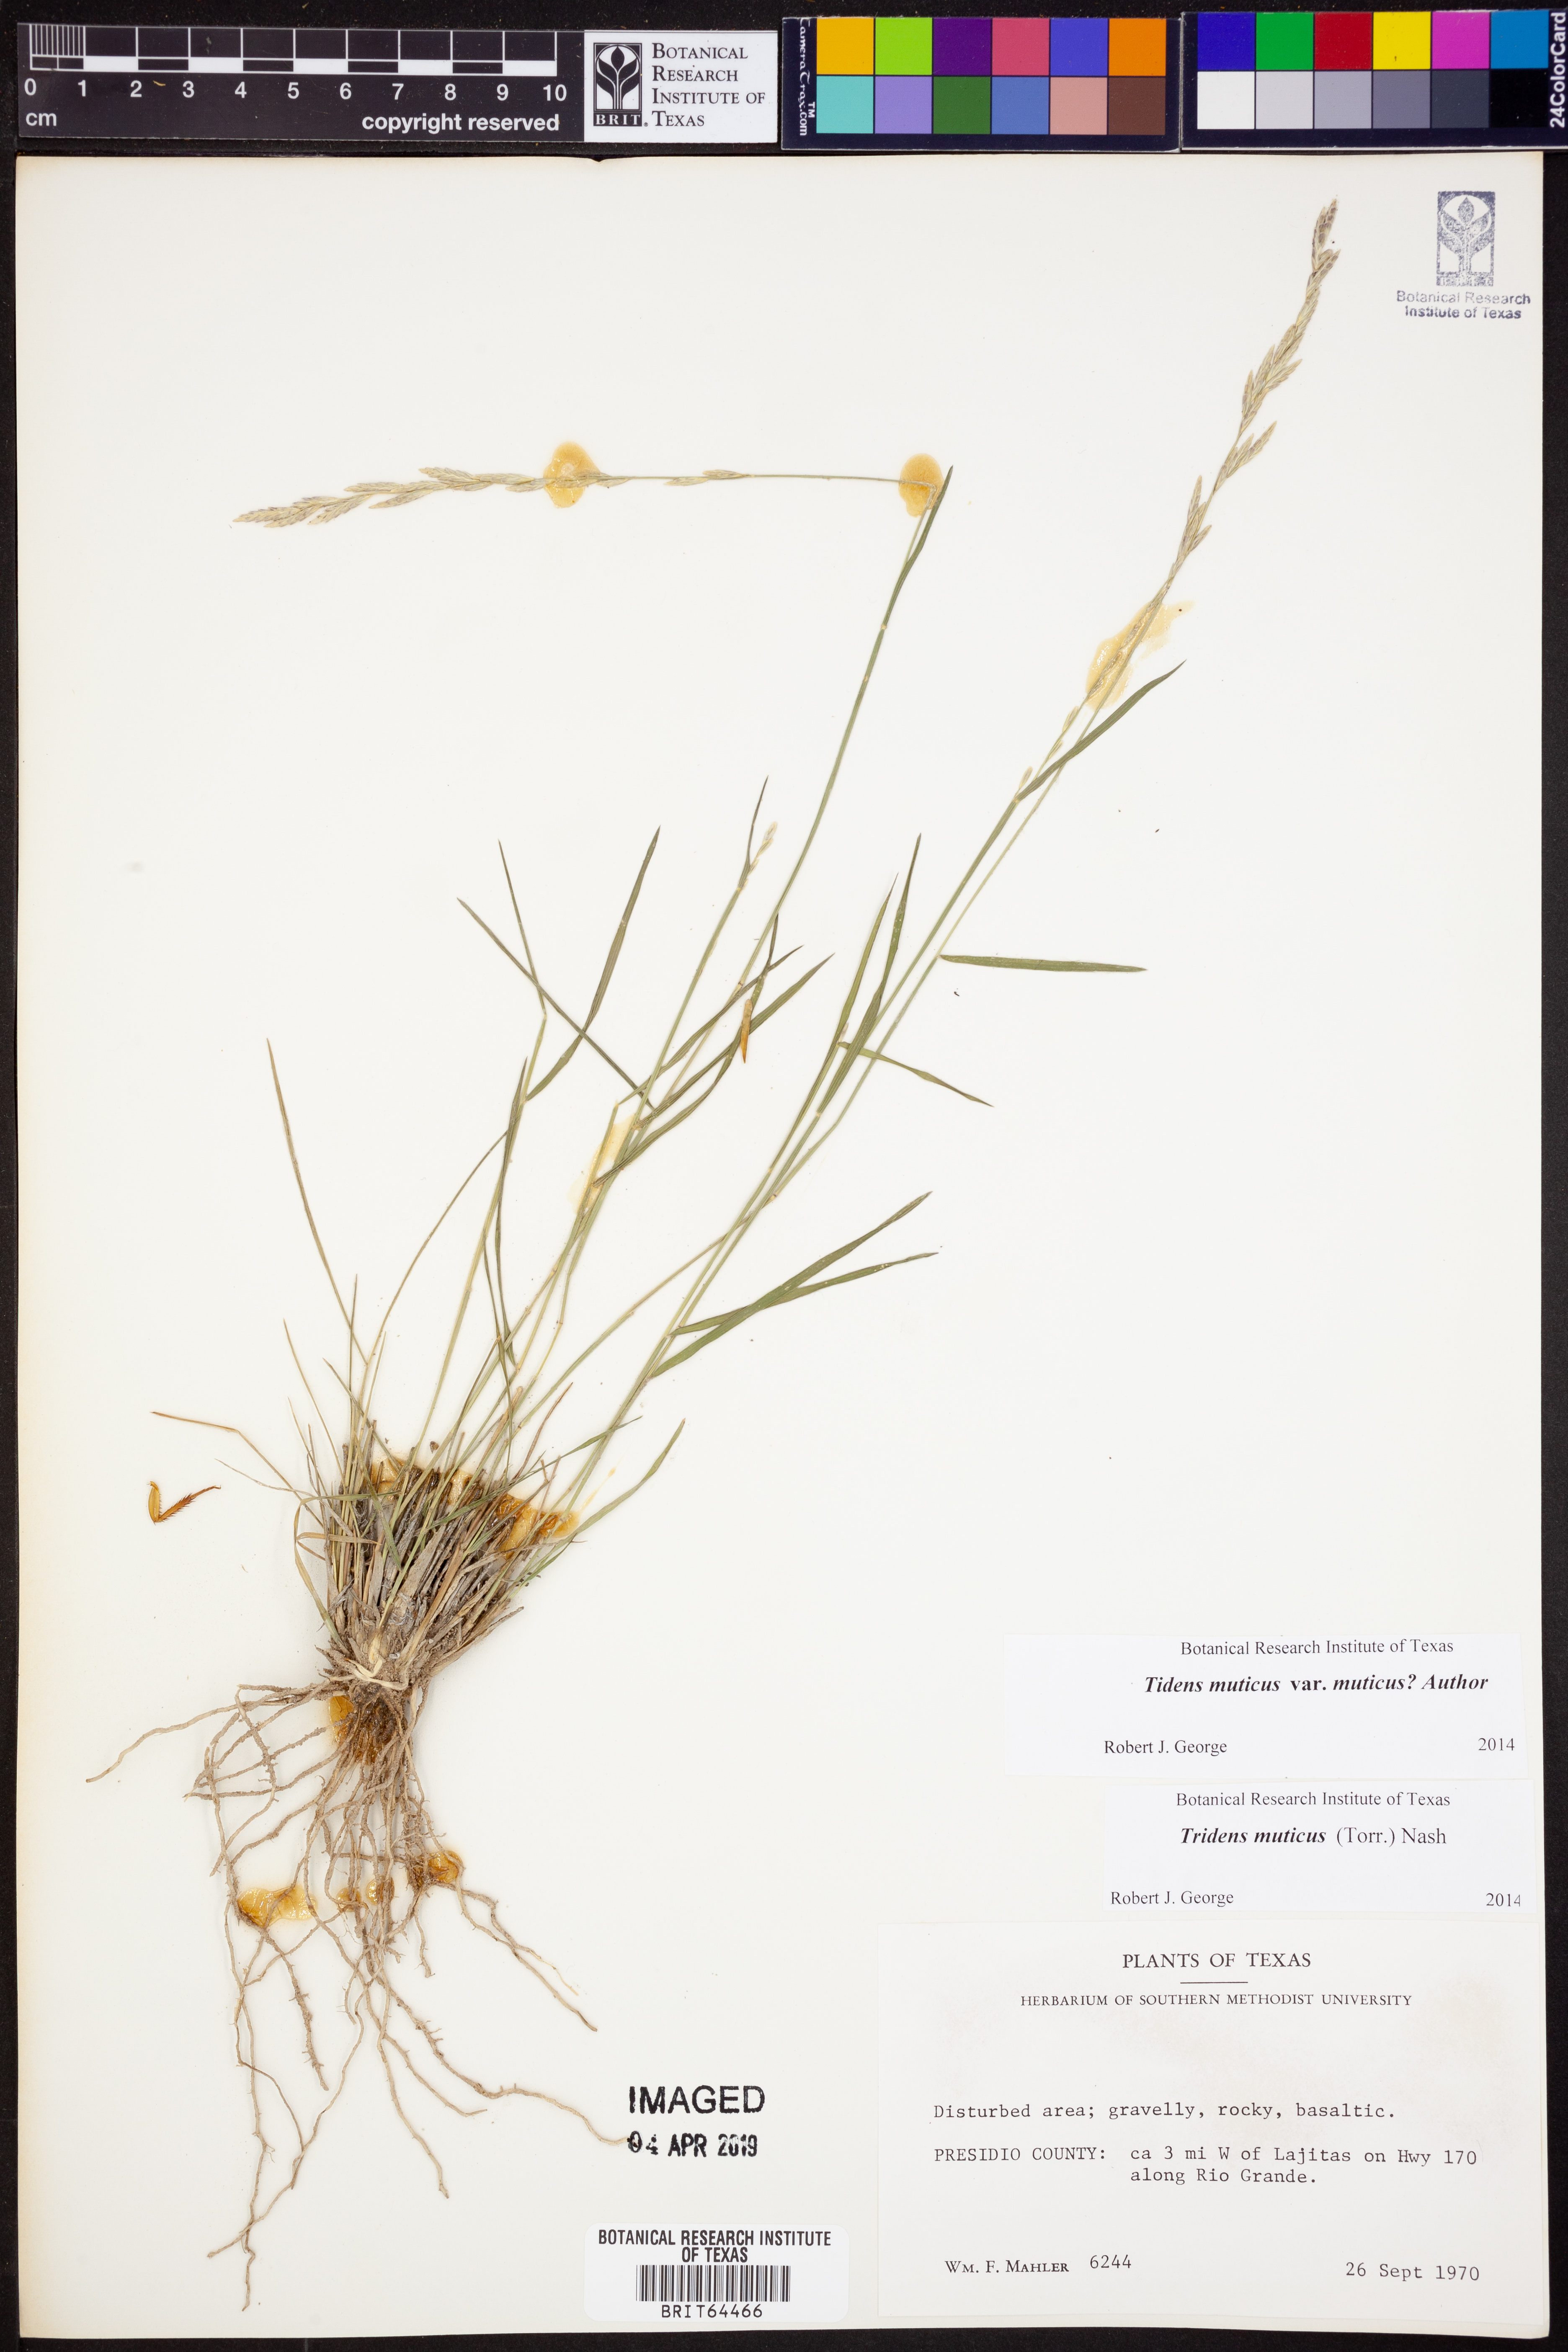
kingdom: Plantae
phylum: Tracheophyta
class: Liliopsida
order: Poales
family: Poaceae
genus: Tridentopsis
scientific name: Tridentopsis mutica
